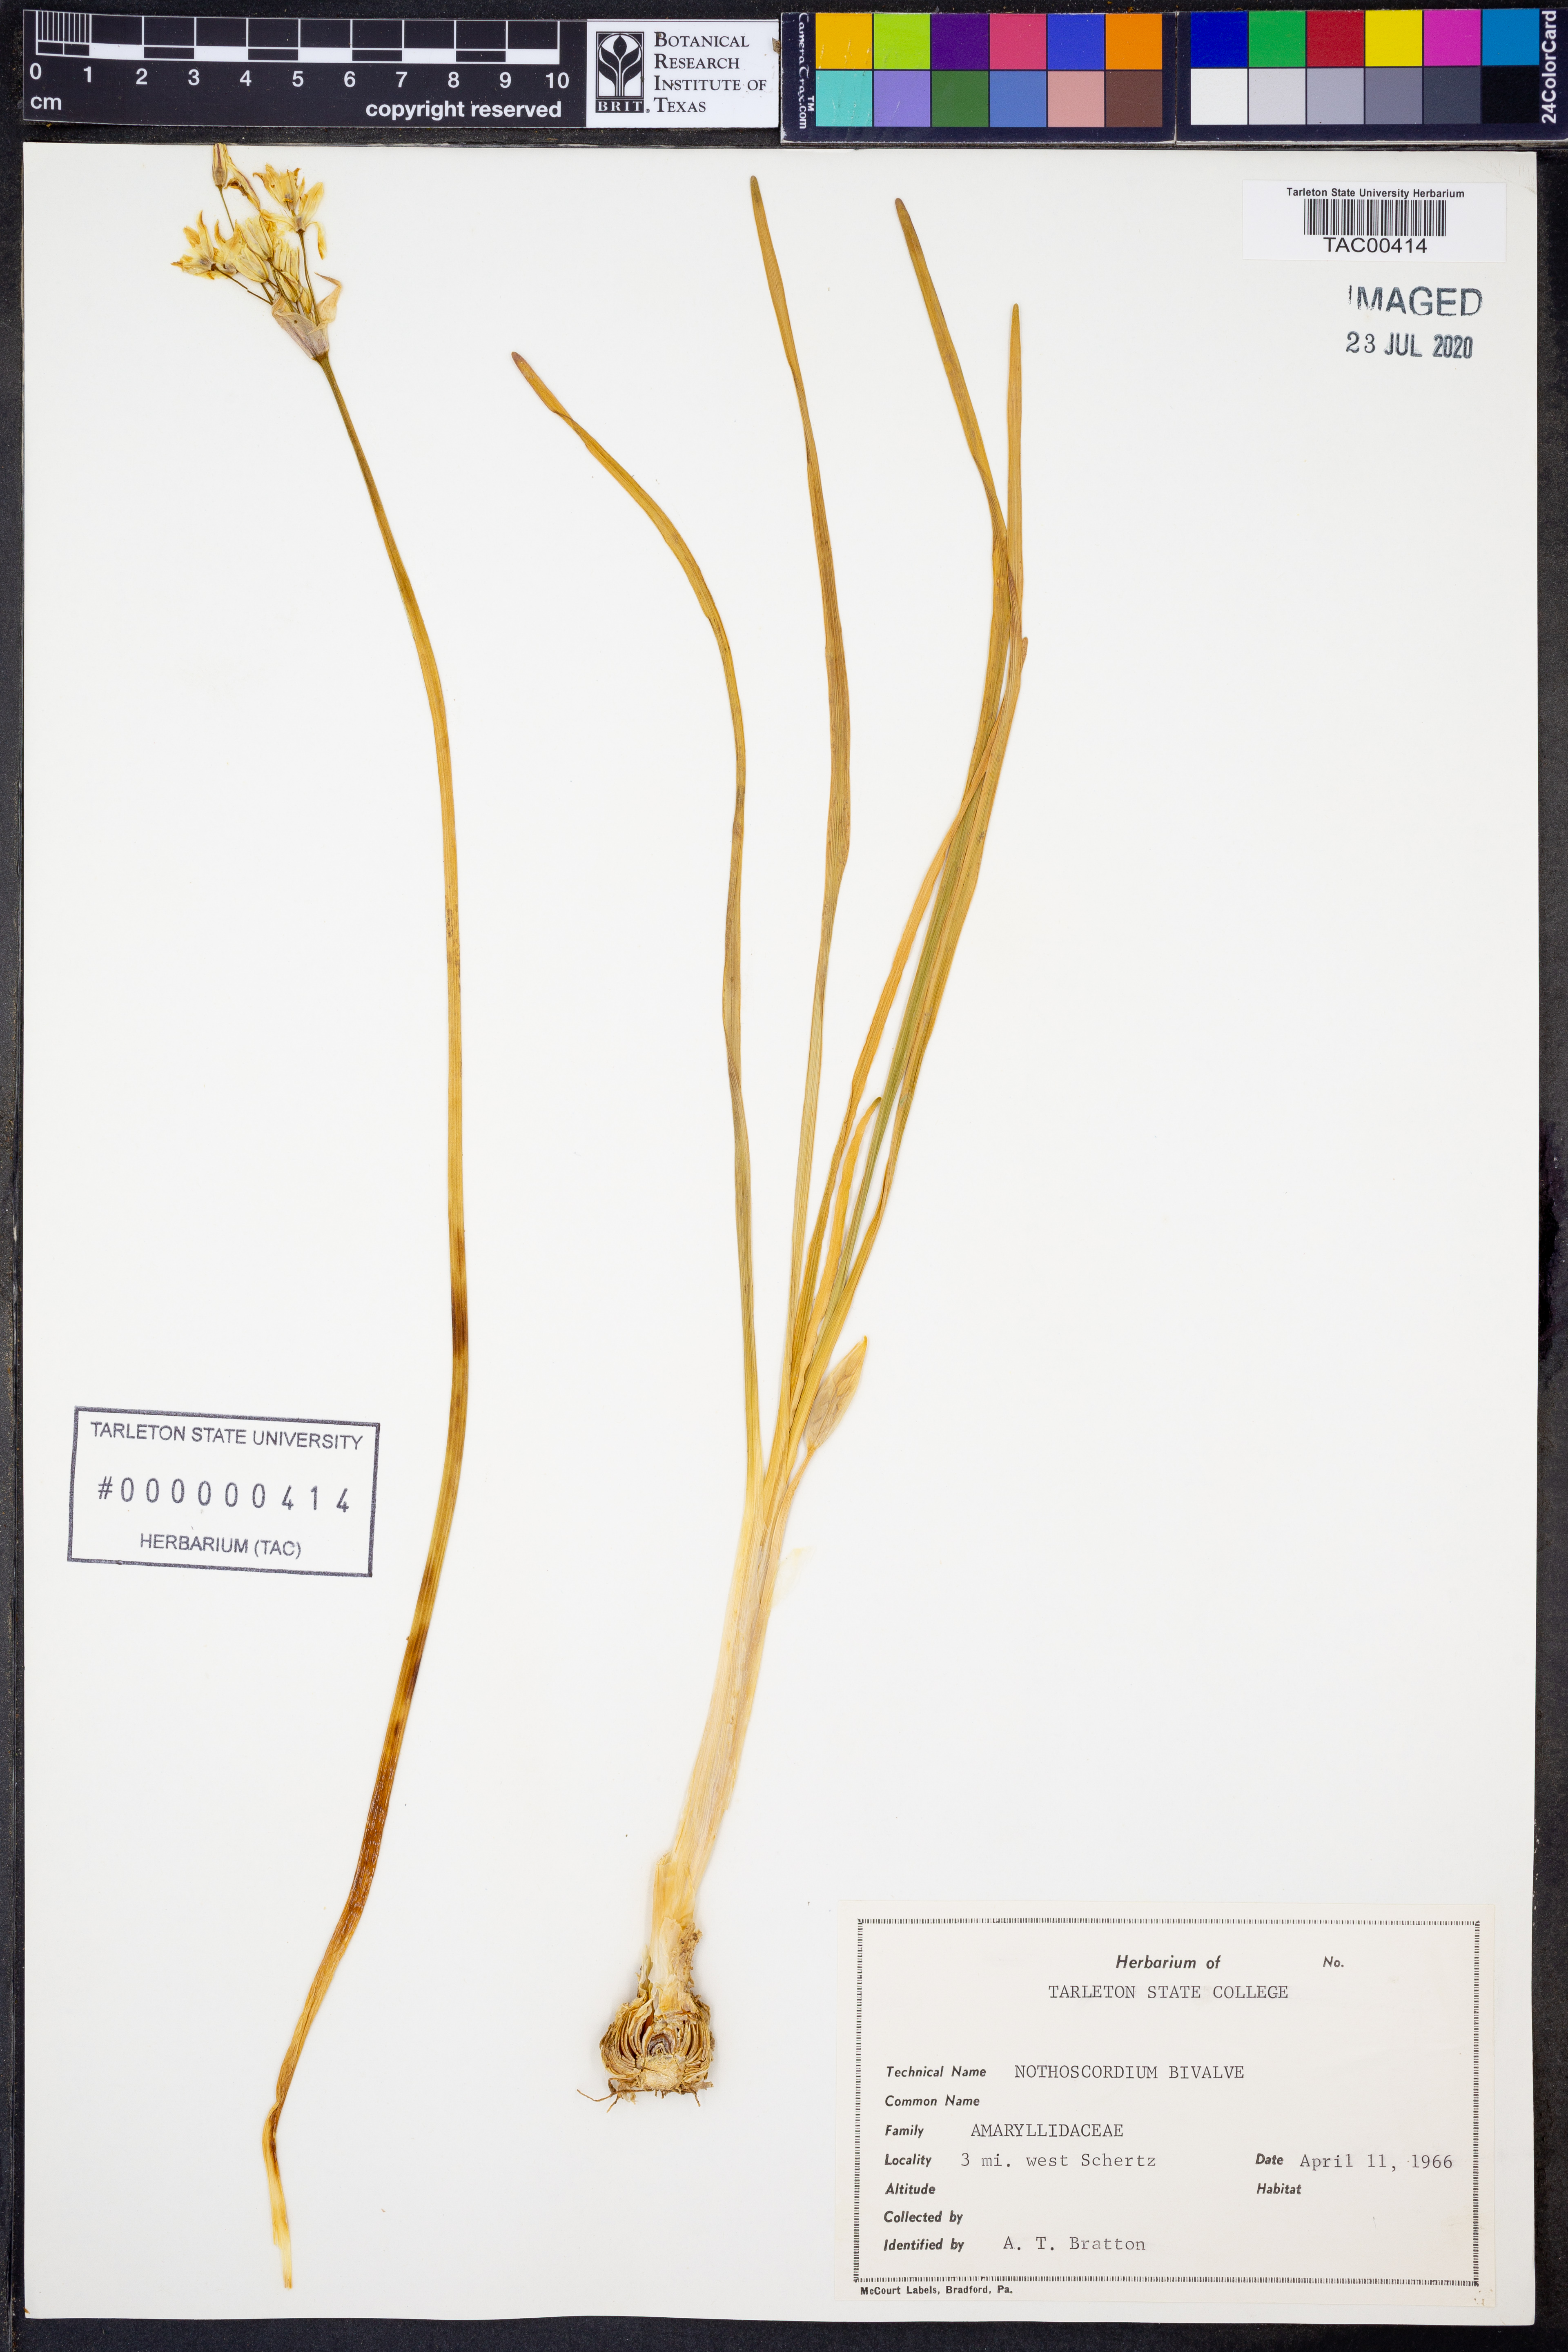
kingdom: Plantae
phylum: Tracheophyta
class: Liliopsida
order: Asparagales
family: Amaryllidaceae
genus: Nothoscordum
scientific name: Nothoscordum bivalve
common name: Crow-poison
